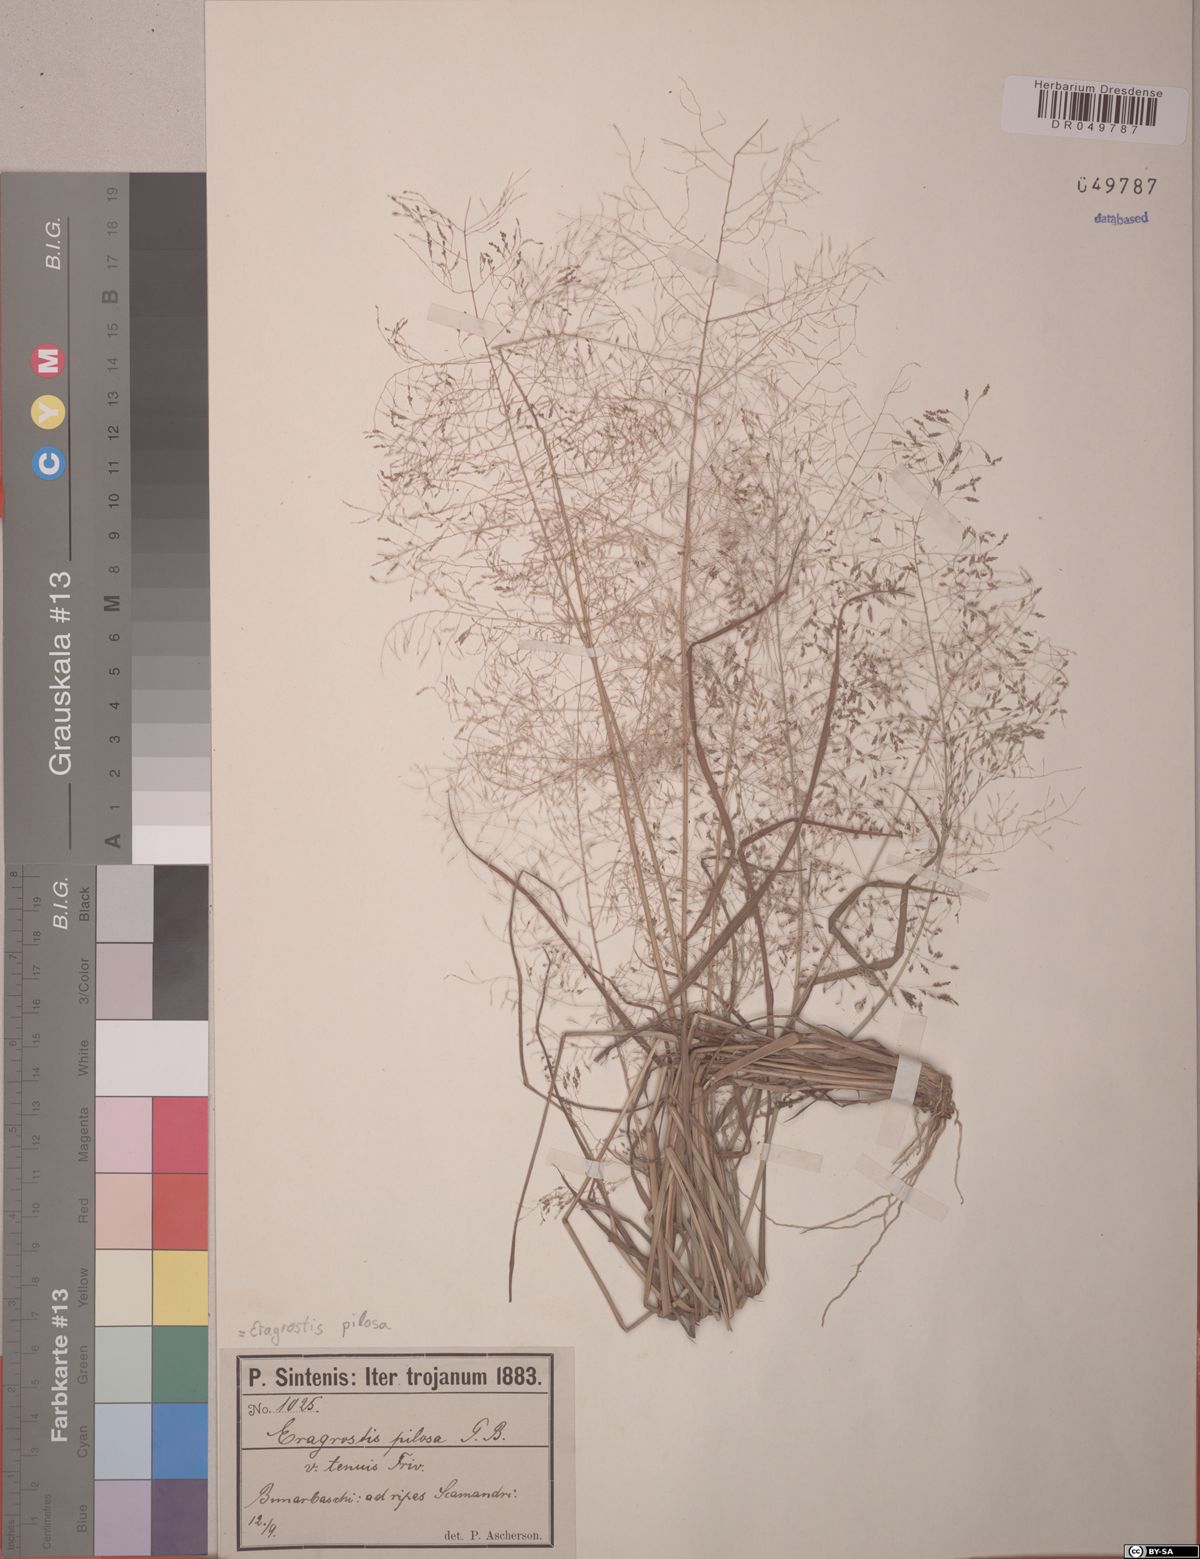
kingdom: Plantae
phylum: Tracheophyta
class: Liliopsida
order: Poales
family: Poaceae
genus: Eragrostis
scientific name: Eragrostis pilosa
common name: Indian lovegrass
